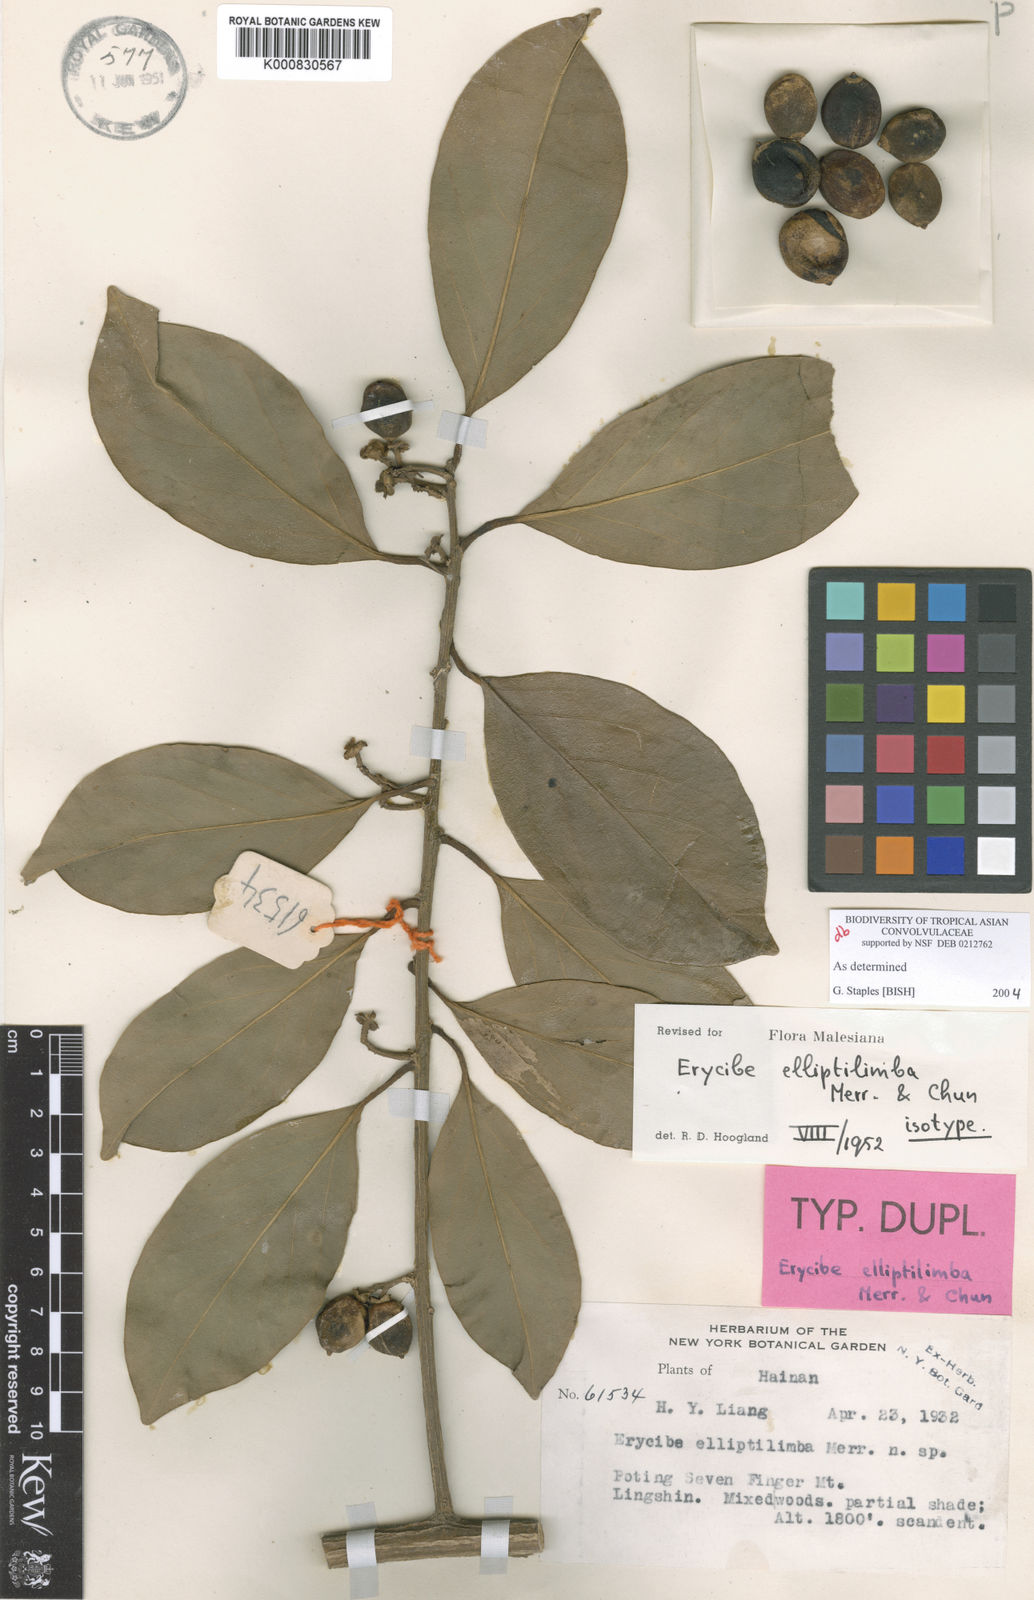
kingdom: Plantae
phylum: Tracheophyta
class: Magnoliopsida
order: Solanales
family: Convolvulaceae
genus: Erycibe
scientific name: Erycibe elliptilimba
